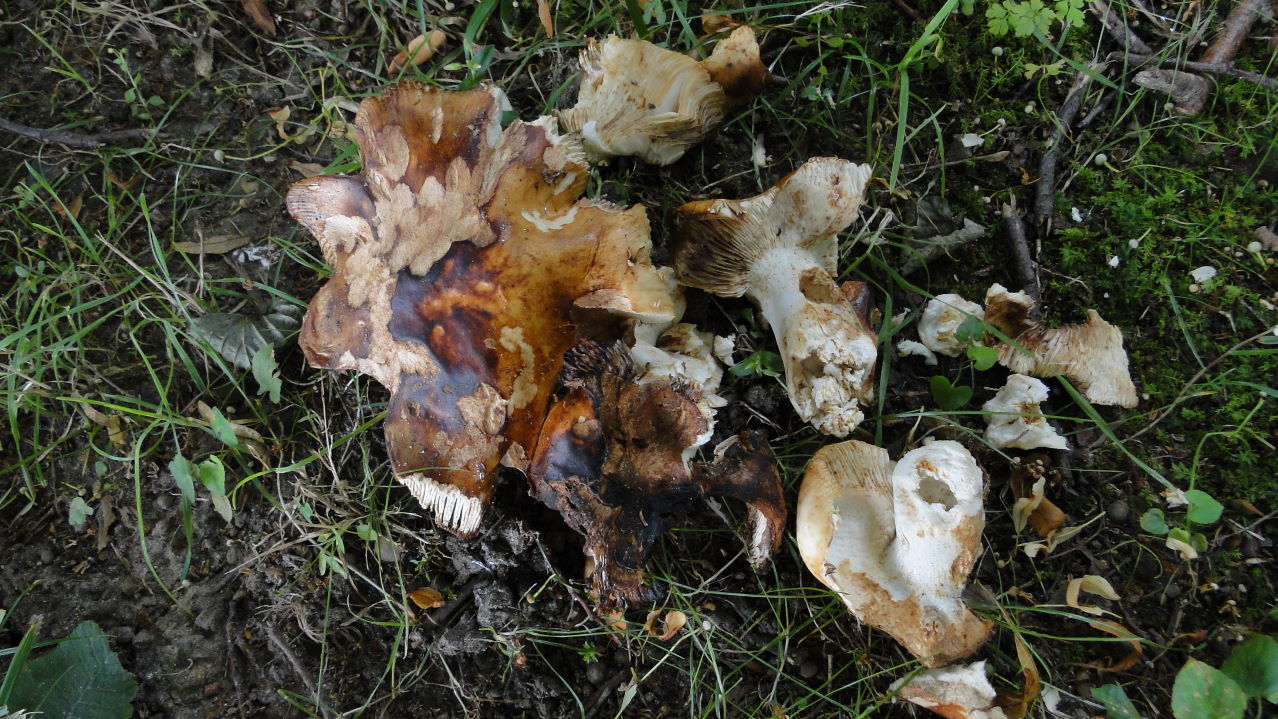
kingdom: Fungi
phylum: Basidiomycota
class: Agaricomycetes
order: Russulales
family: Russulaceae
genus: Russula
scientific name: Russula illota
